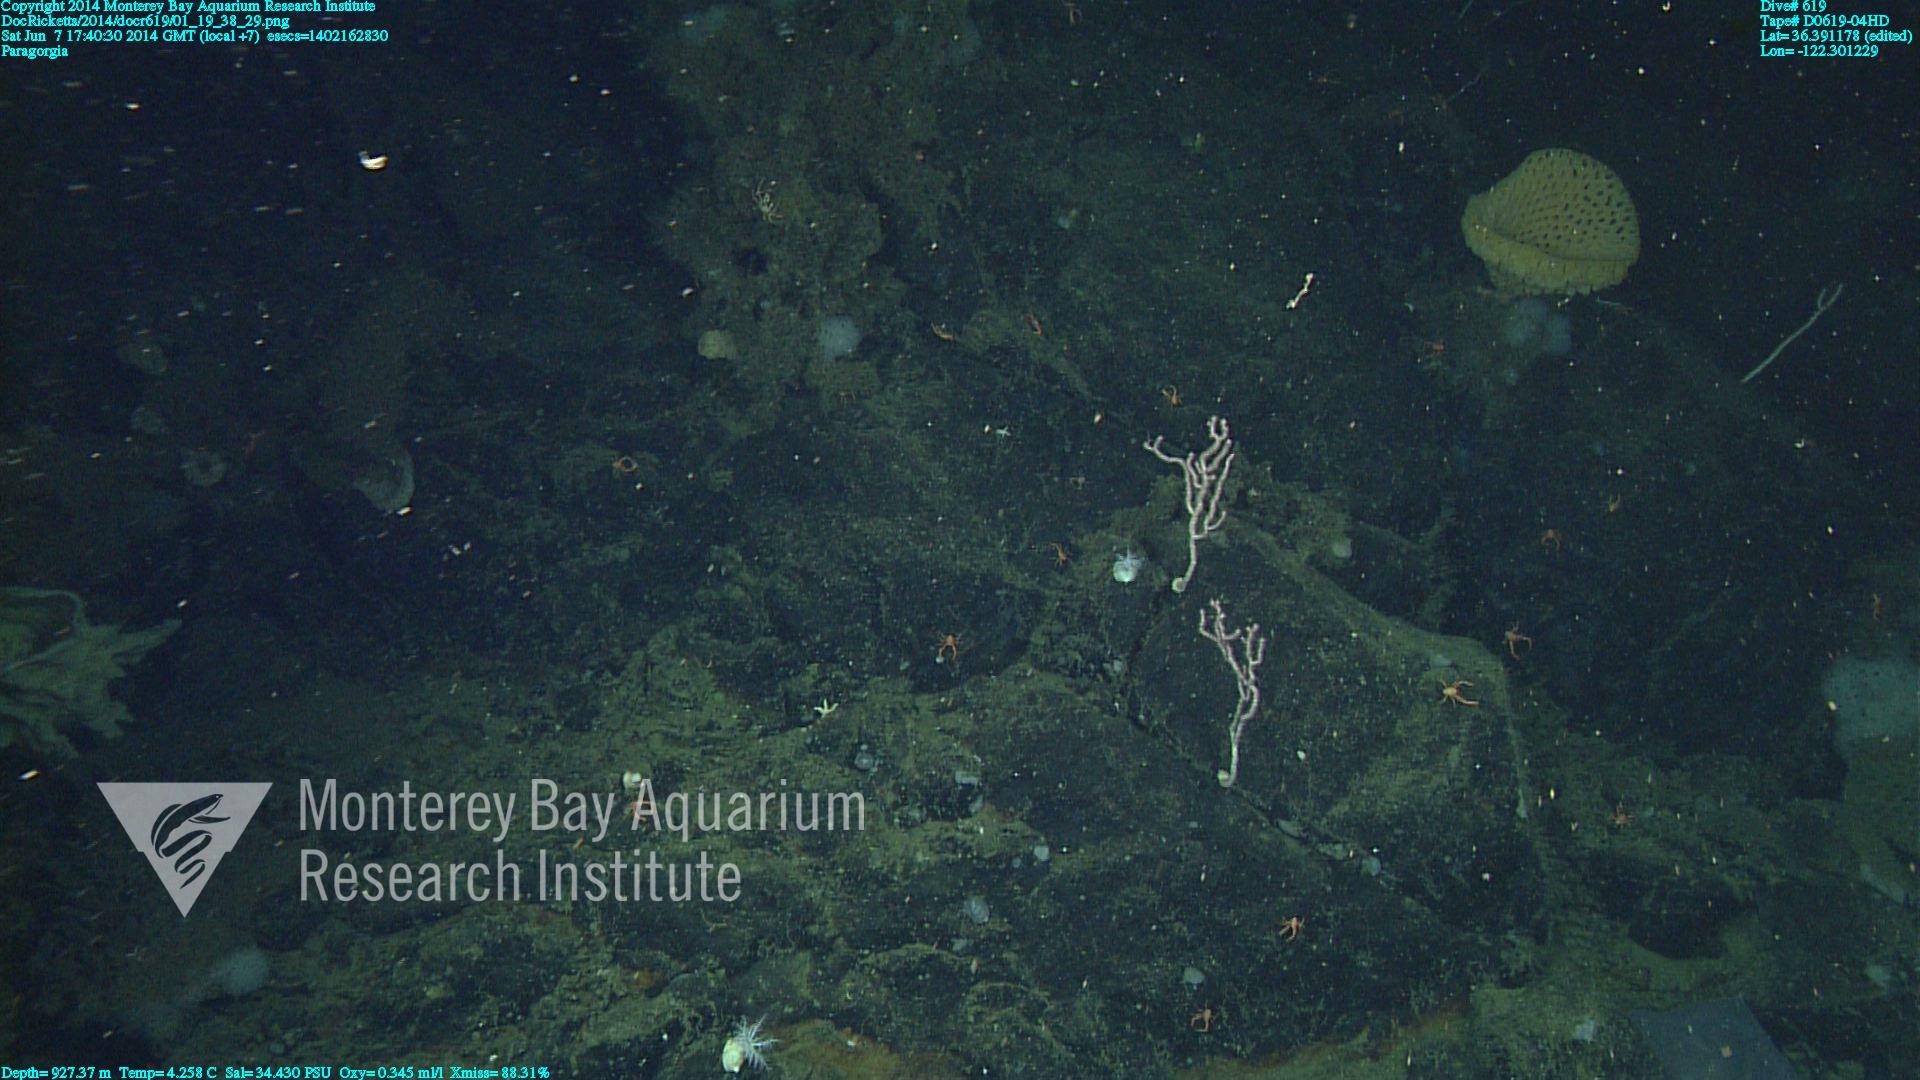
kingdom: Animalia
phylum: Cnidaria
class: Anthozoa
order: Scleralcyonacea
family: Coralliidae
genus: Paragorgia
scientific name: Paragorgia
